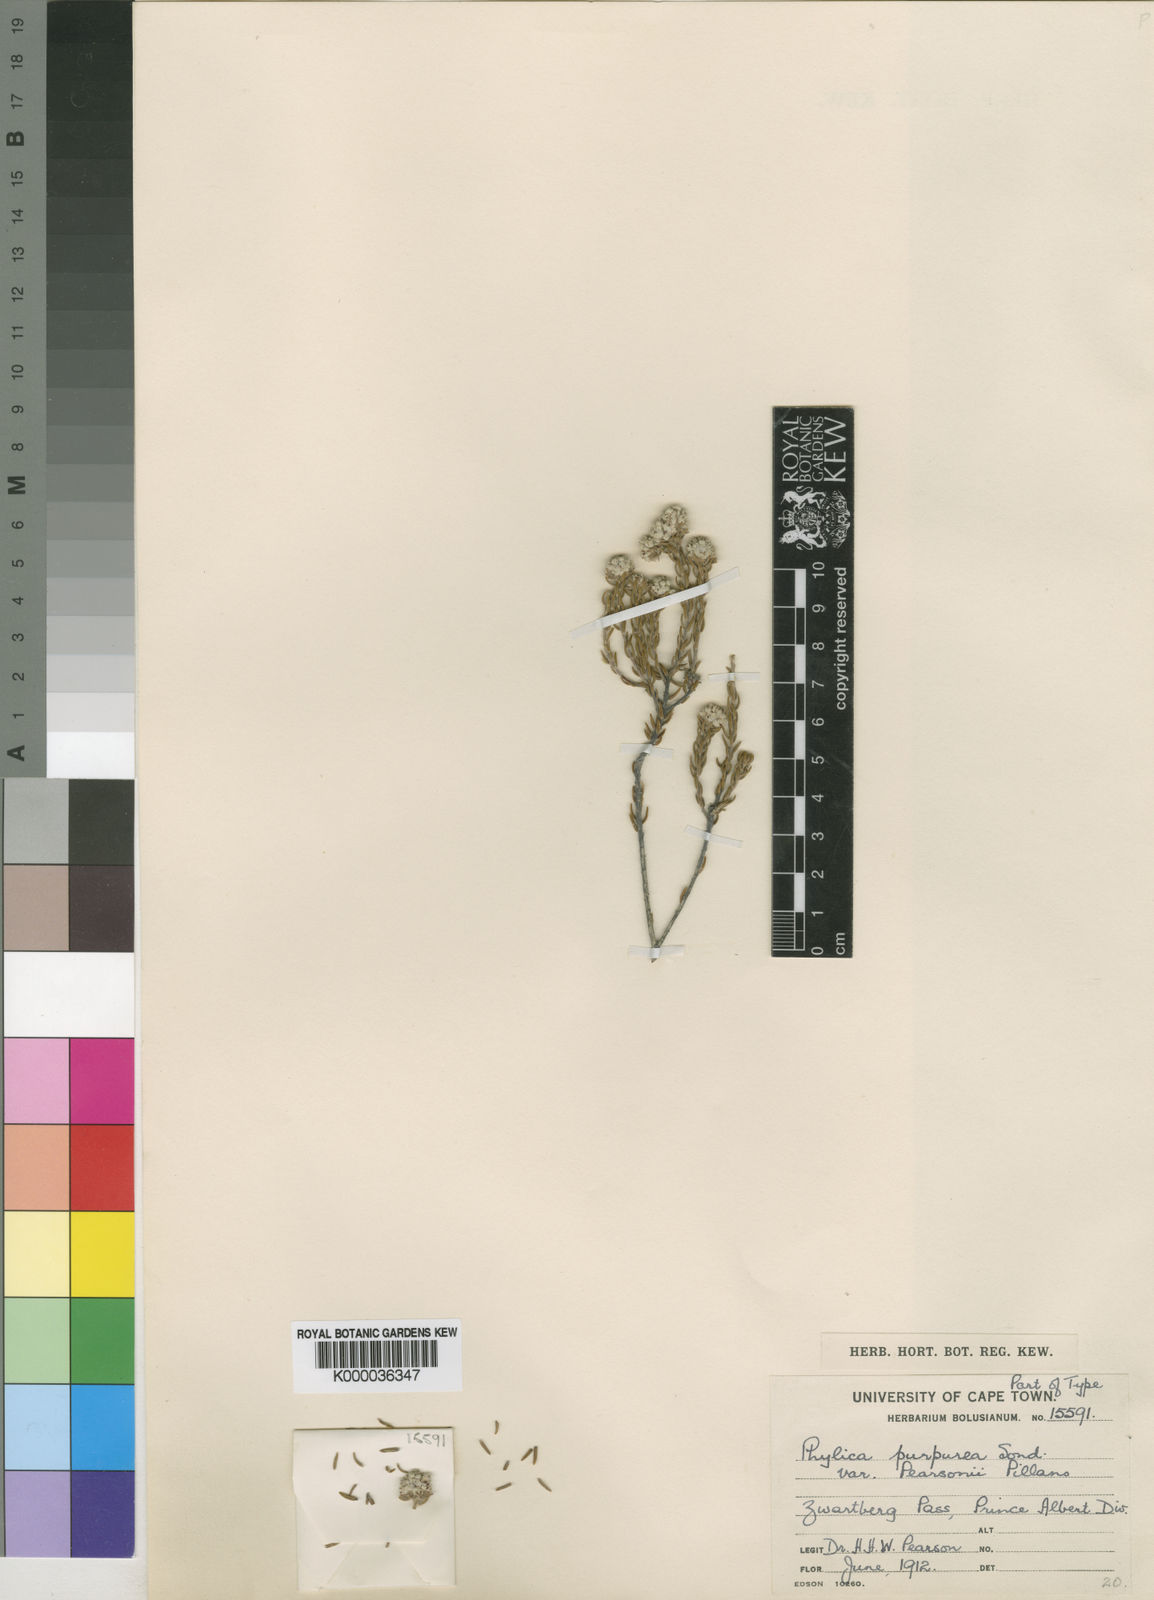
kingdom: Plantae
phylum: Tracheophyta
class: Magnoliopsida
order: Rosales
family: Rhamnaceae
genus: Phylica
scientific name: Phylica purpurea
